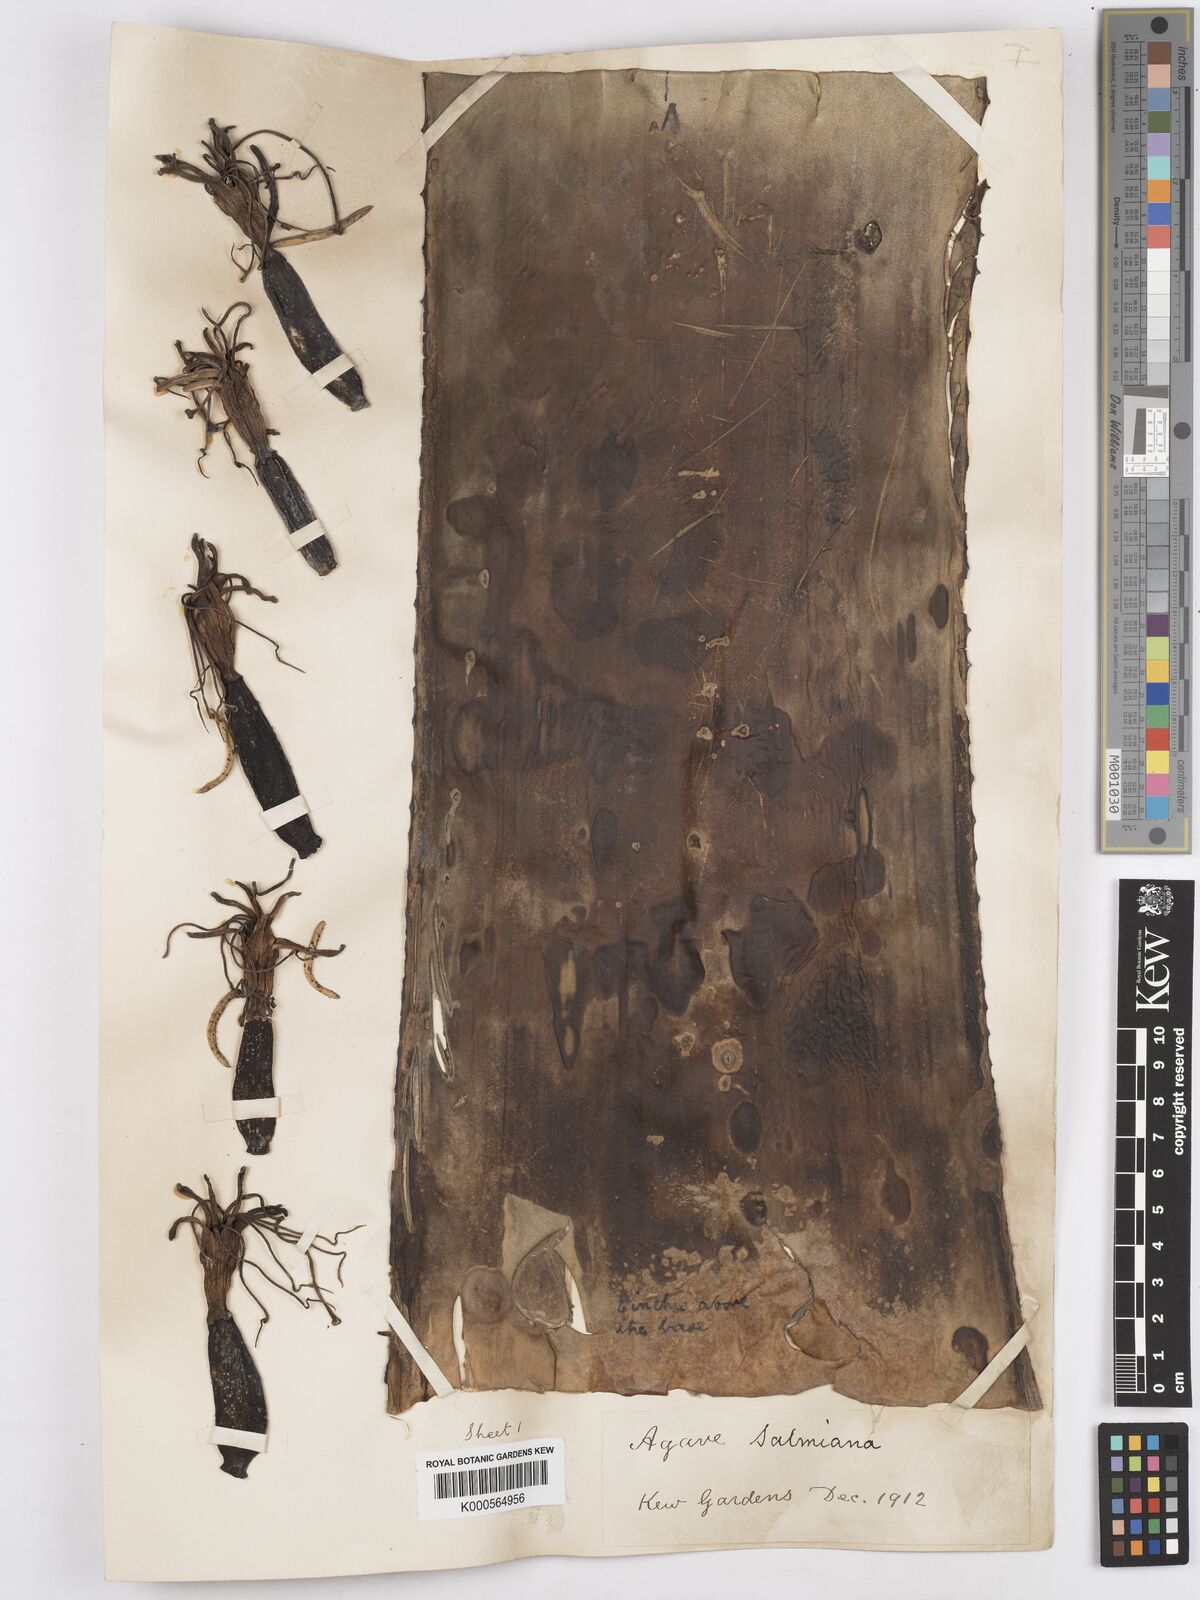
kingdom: Plantae
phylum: Tracheophyta
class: Liliopsida
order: Asparagales
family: Asparagaceae
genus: Agave
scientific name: Agave salmiana
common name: Pulque agave
